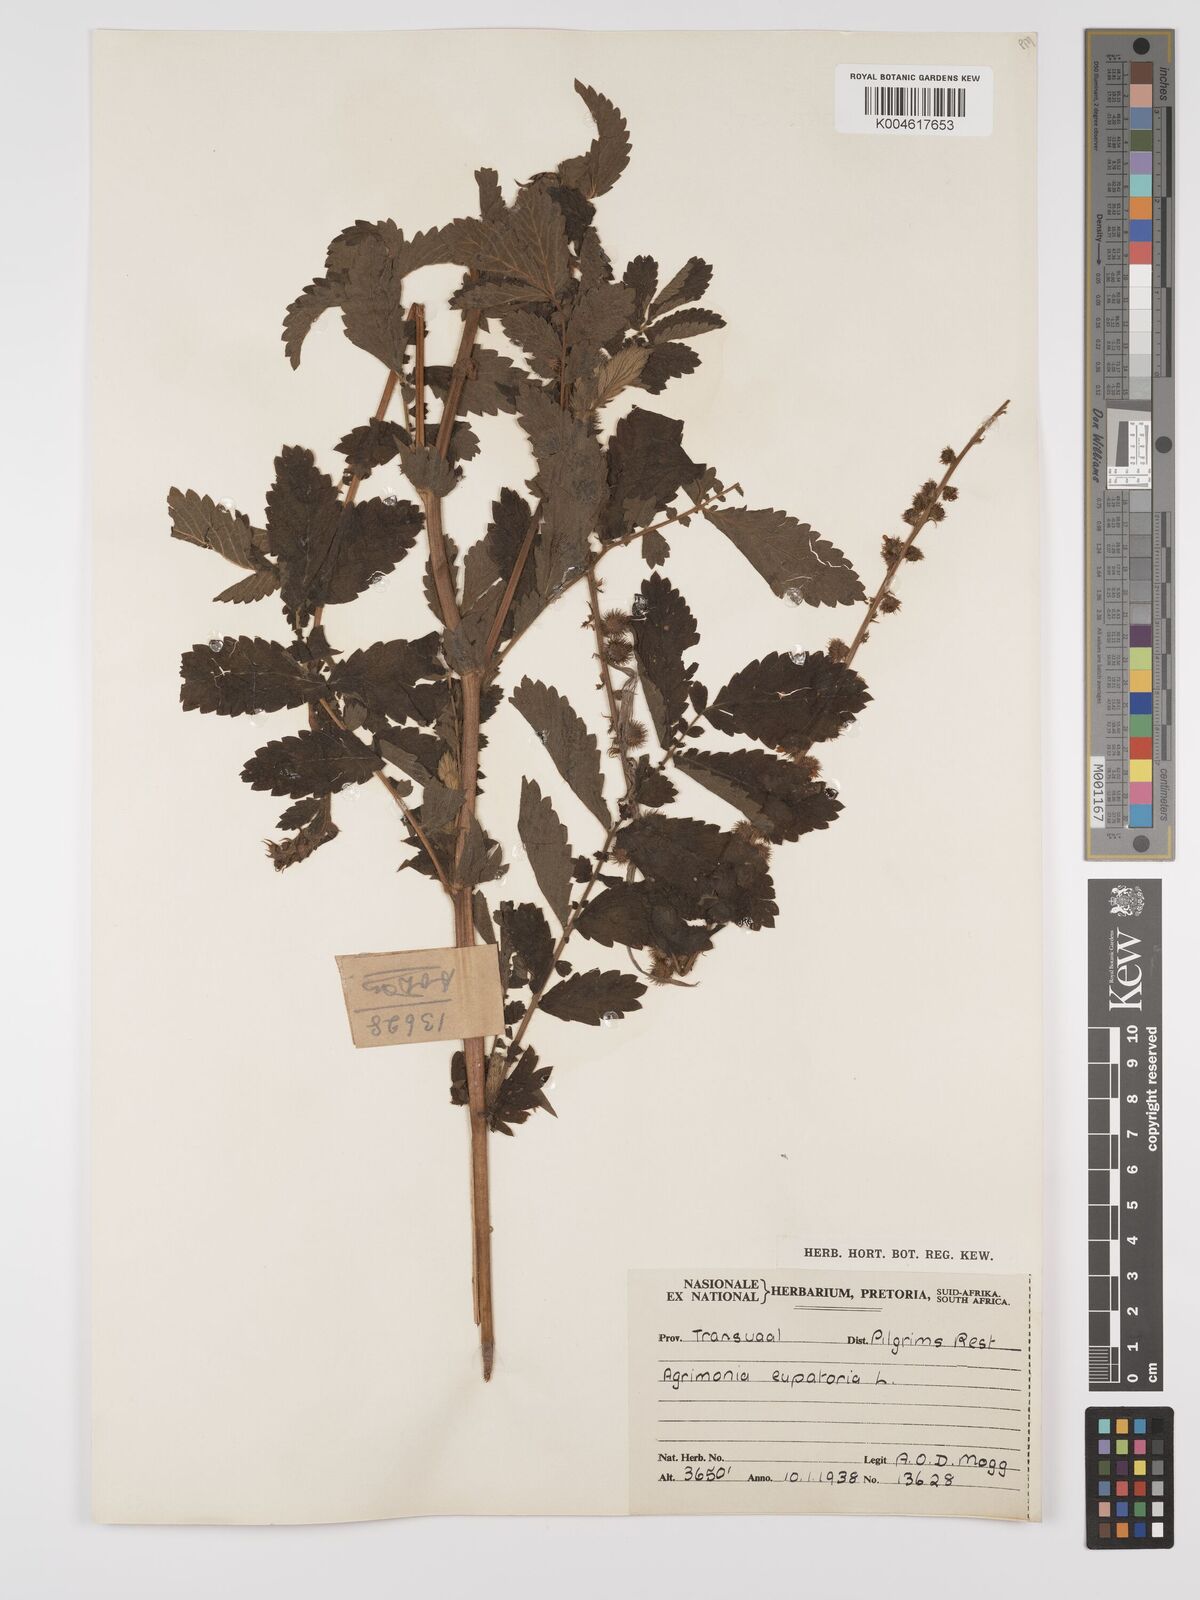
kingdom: Plantae
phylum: Tracheophyta
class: Magnoliopsida
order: Rosales
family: Rosaceae
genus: Agrimonia
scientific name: Agrimonia eupatoria
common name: Agrimony
